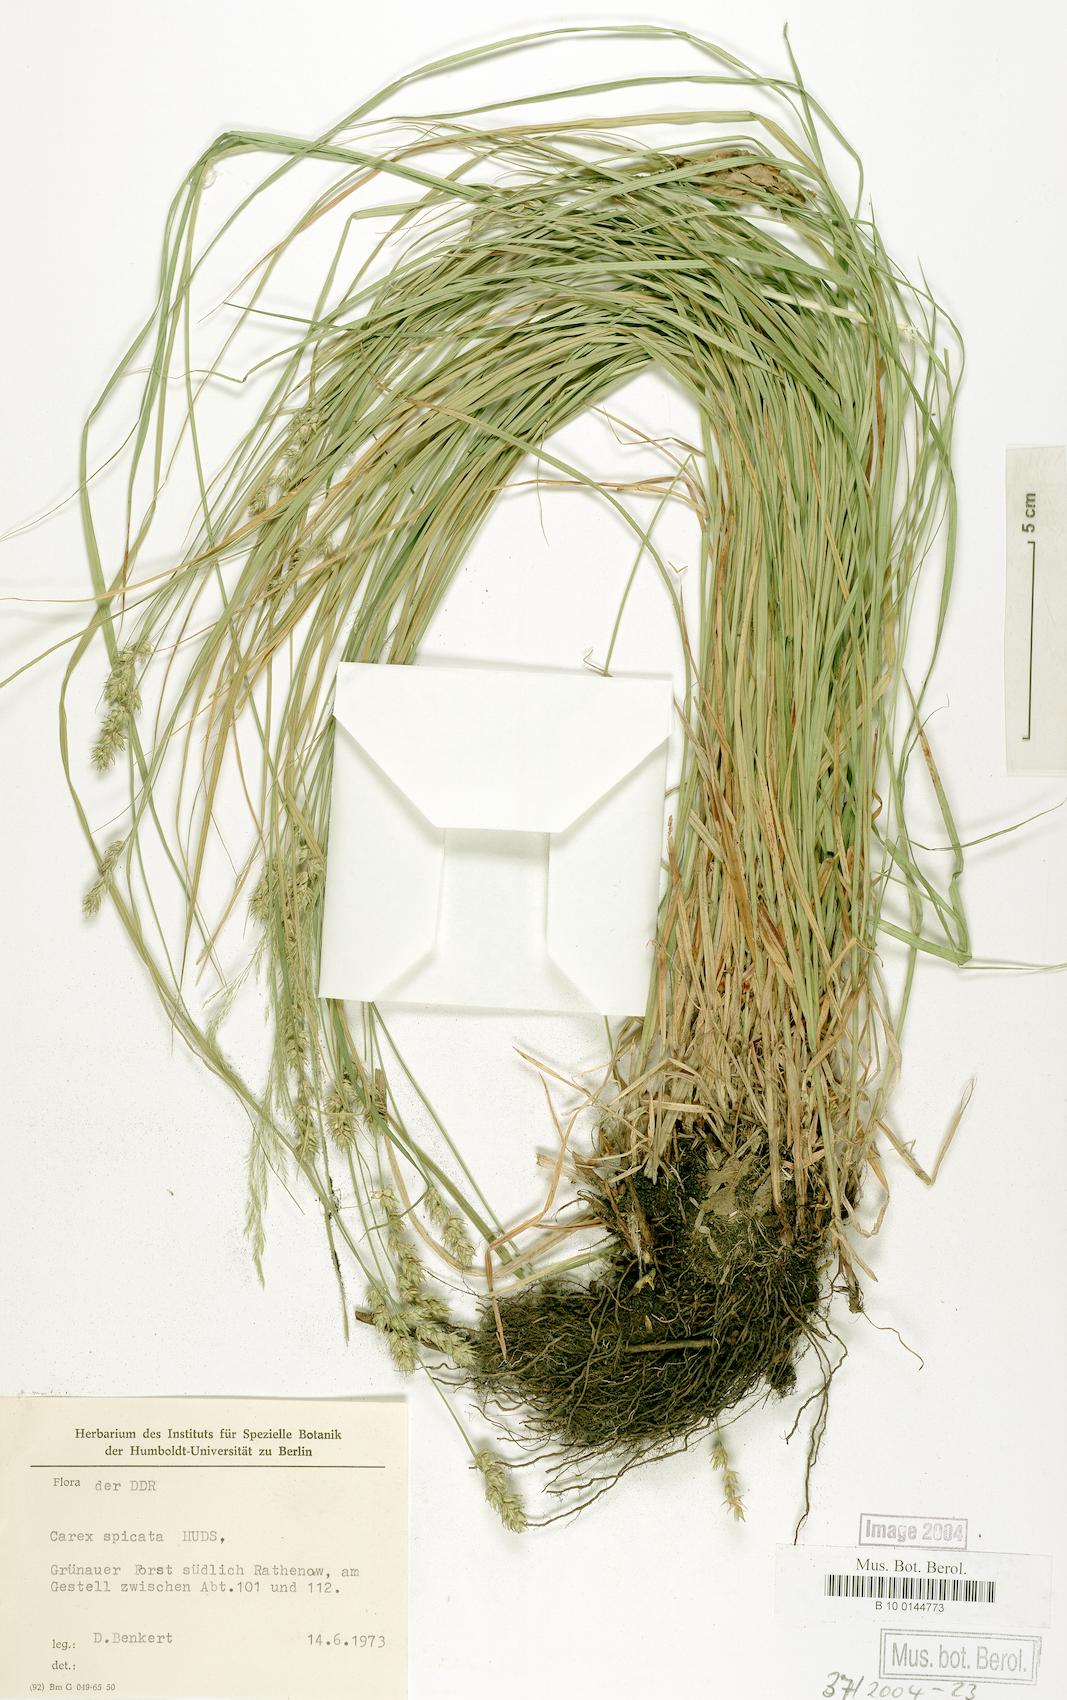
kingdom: Plantae
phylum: Tracheophyta
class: Liliopsida
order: Poales
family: Cyperaceae
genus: Carex
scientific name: Carex spicata
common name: Spiked sedge
